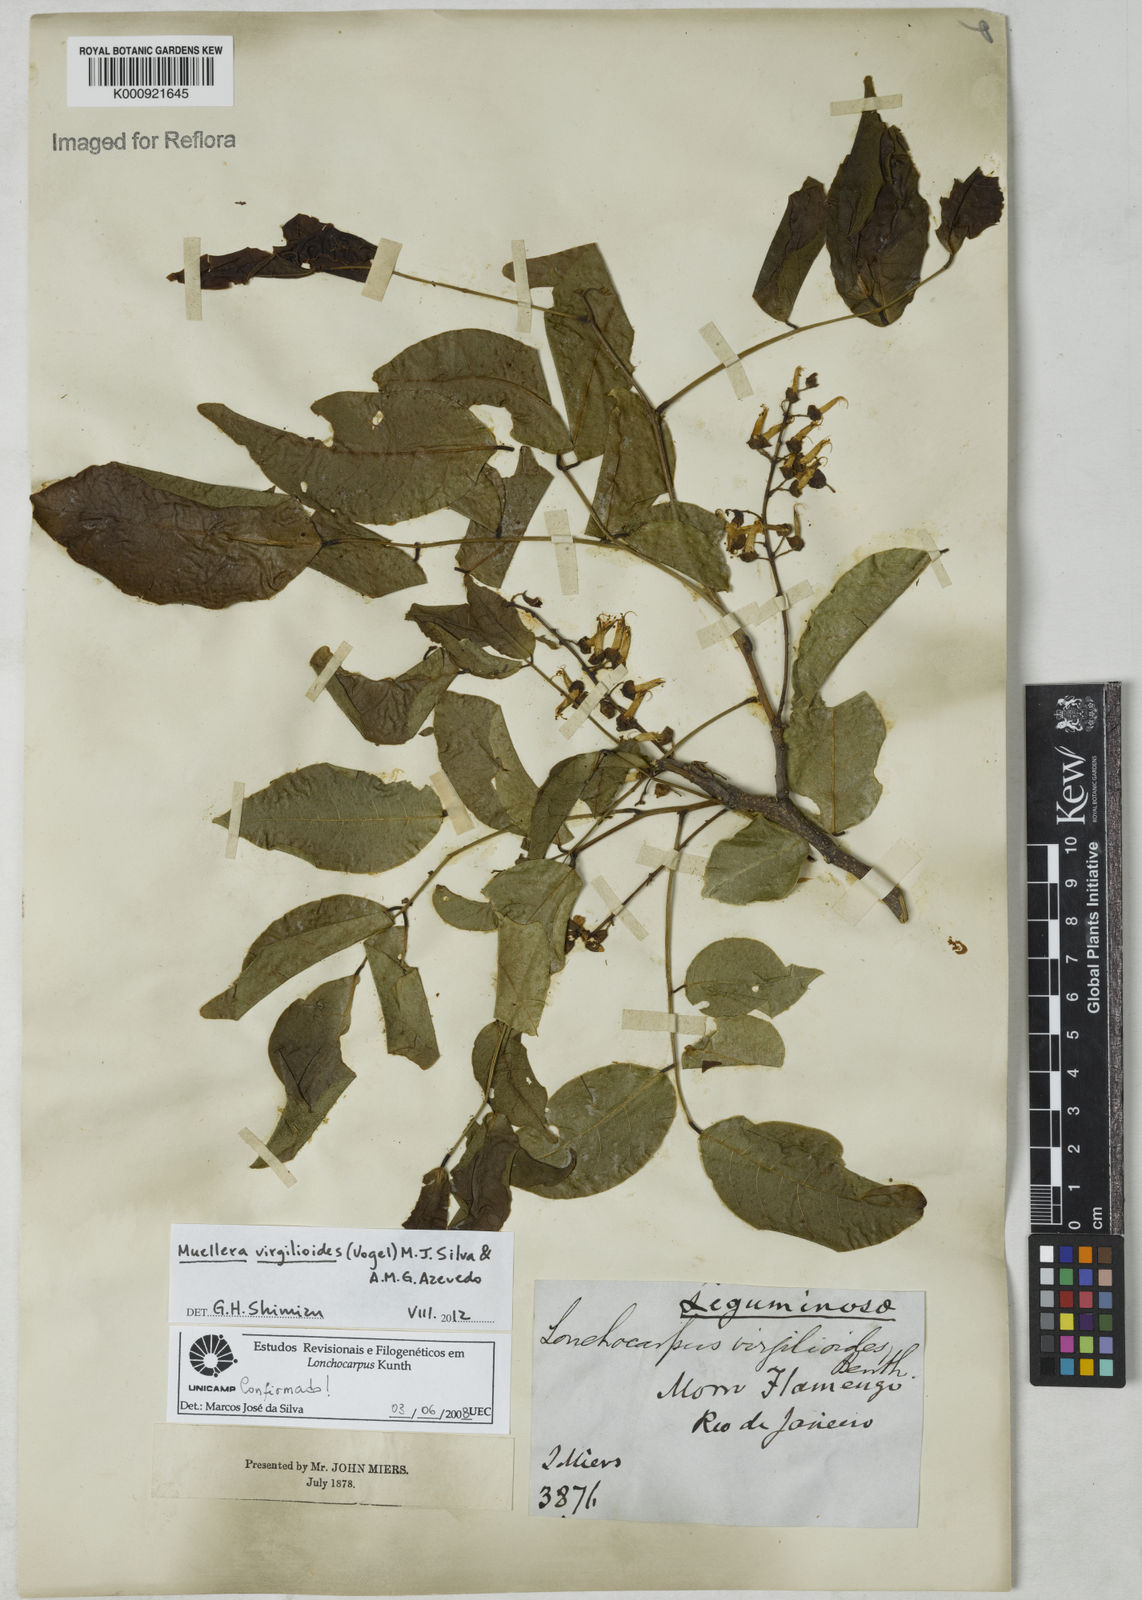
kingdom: Plantae
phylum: Tracheophyta
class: Magnoliopsida
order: Fabales
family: Fabaceae
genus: Muellera
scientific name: Muellera virgilioides
